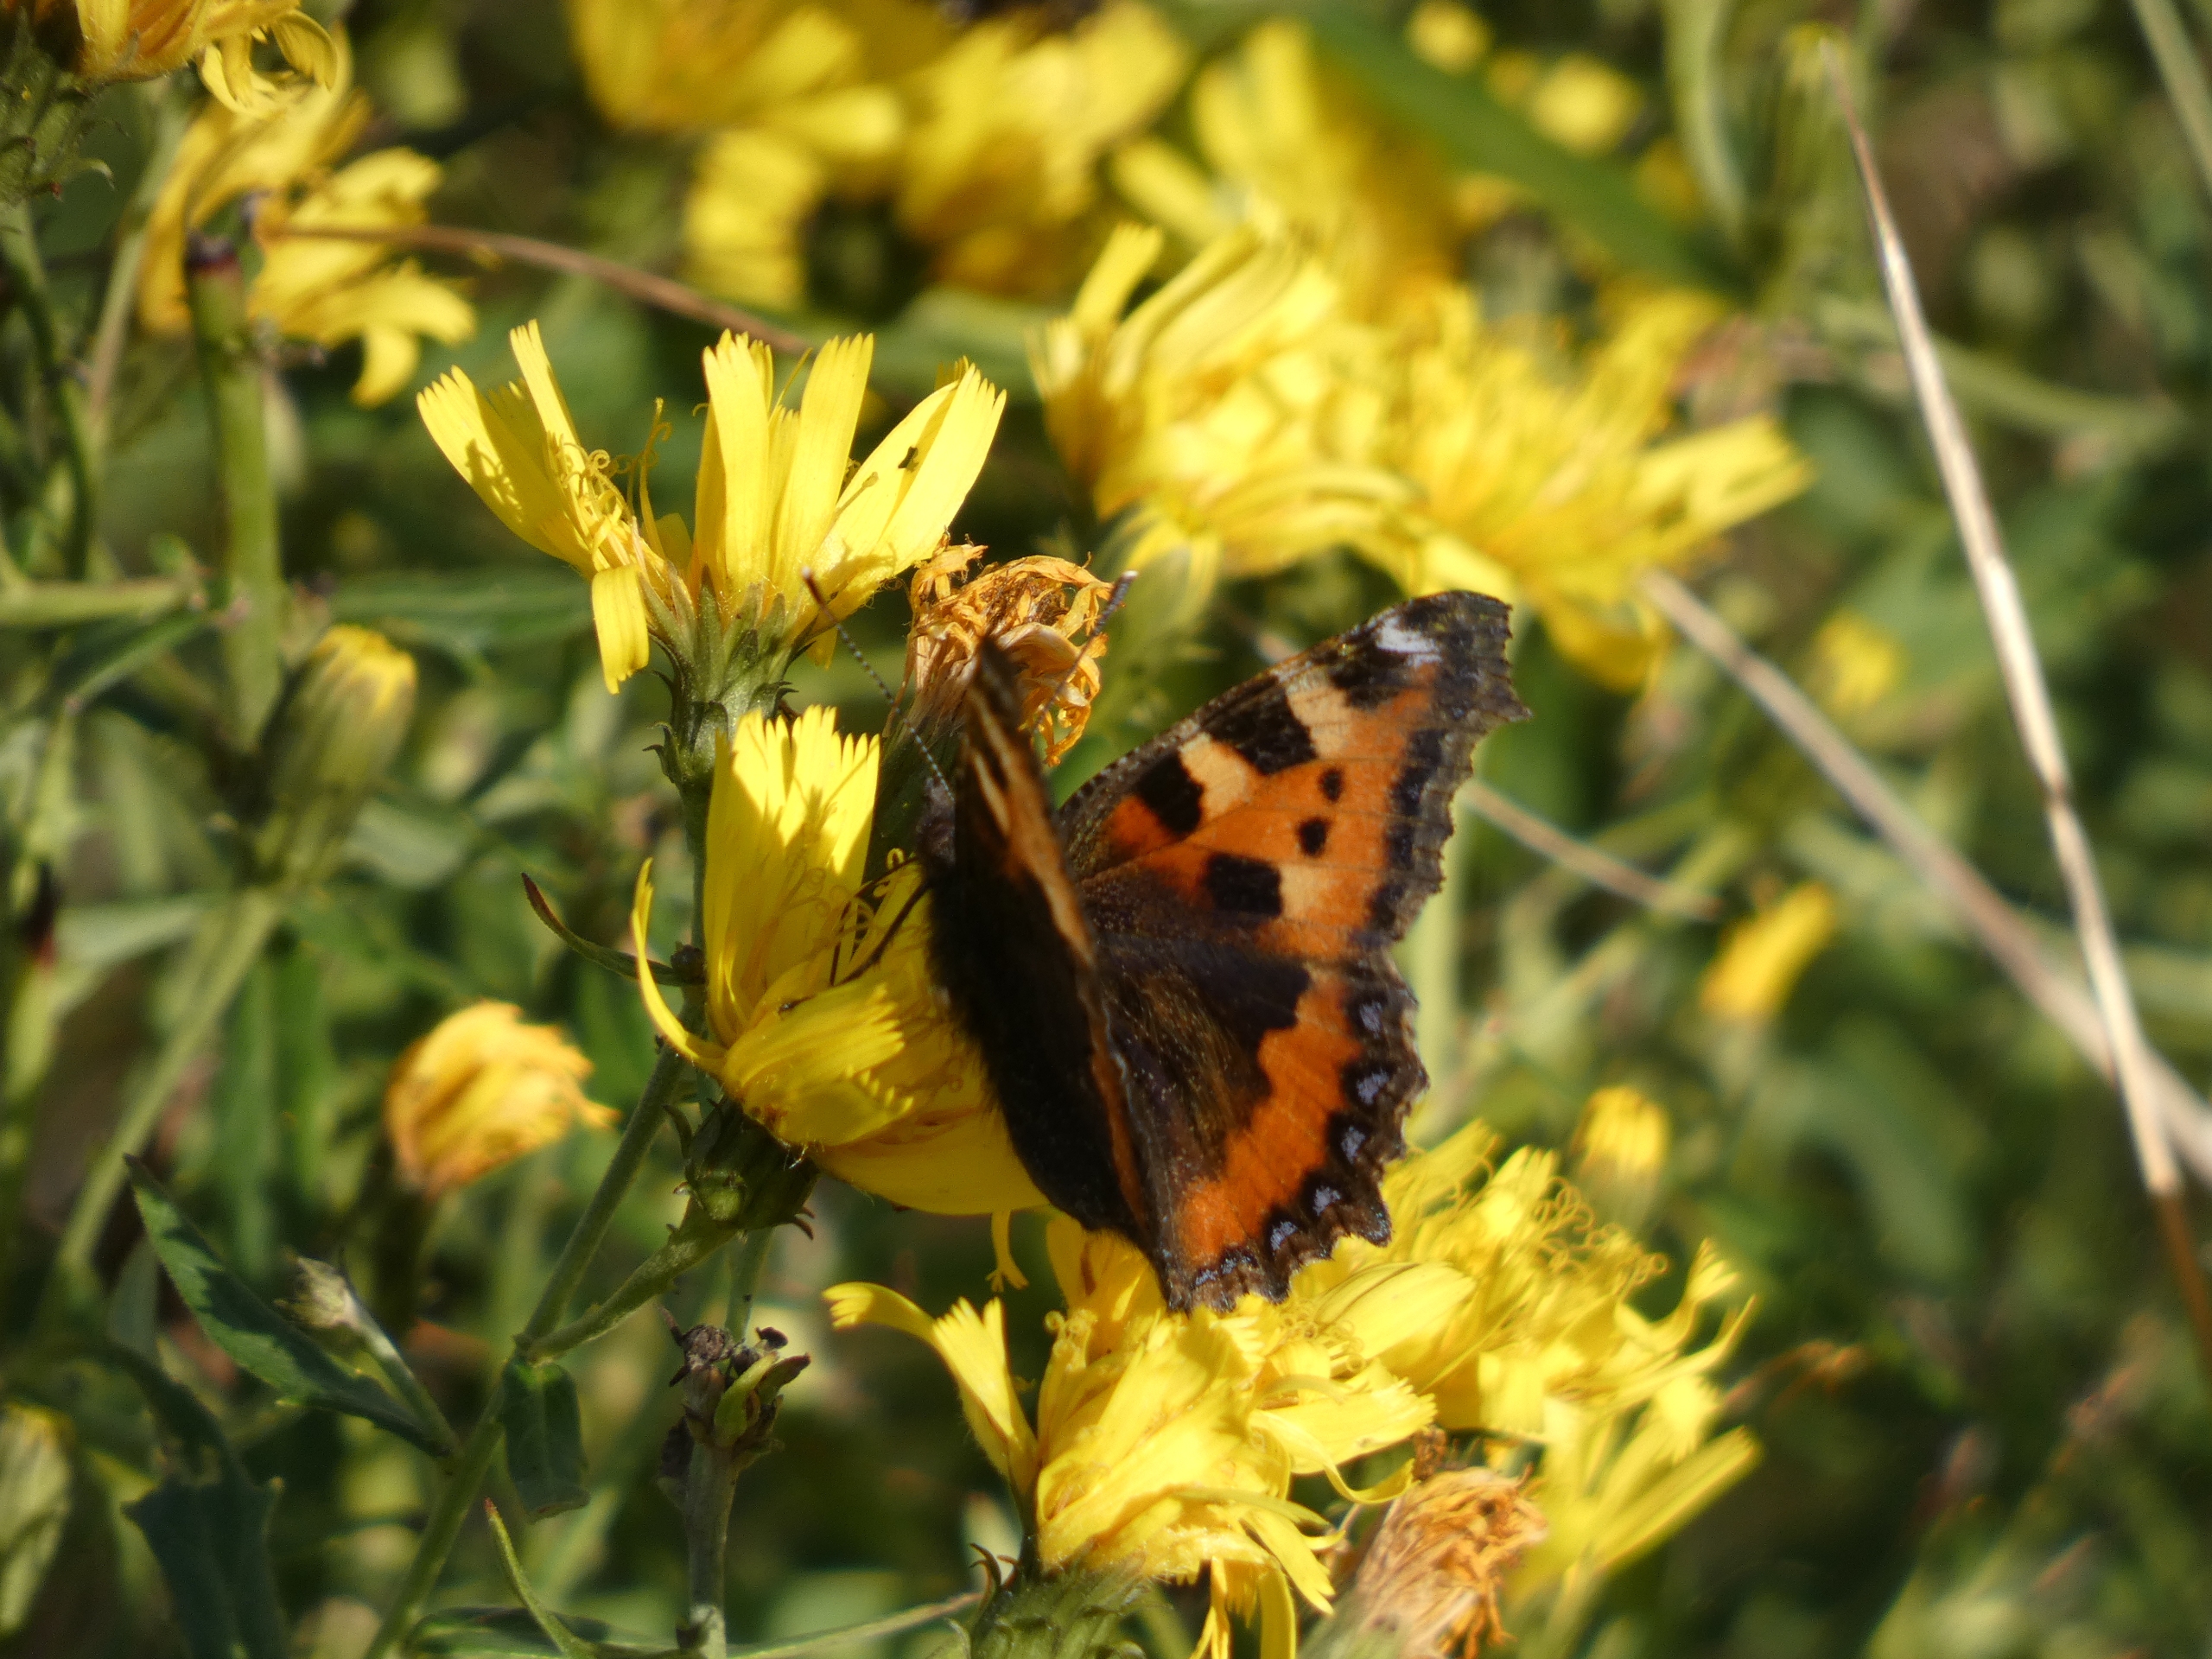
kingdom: Animalia
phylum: Arthropoda
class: Insecta
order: Lepidoptera
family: Nymphalidae
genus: Aglais
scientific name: Aglais urticae
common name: Nældens takvinge
